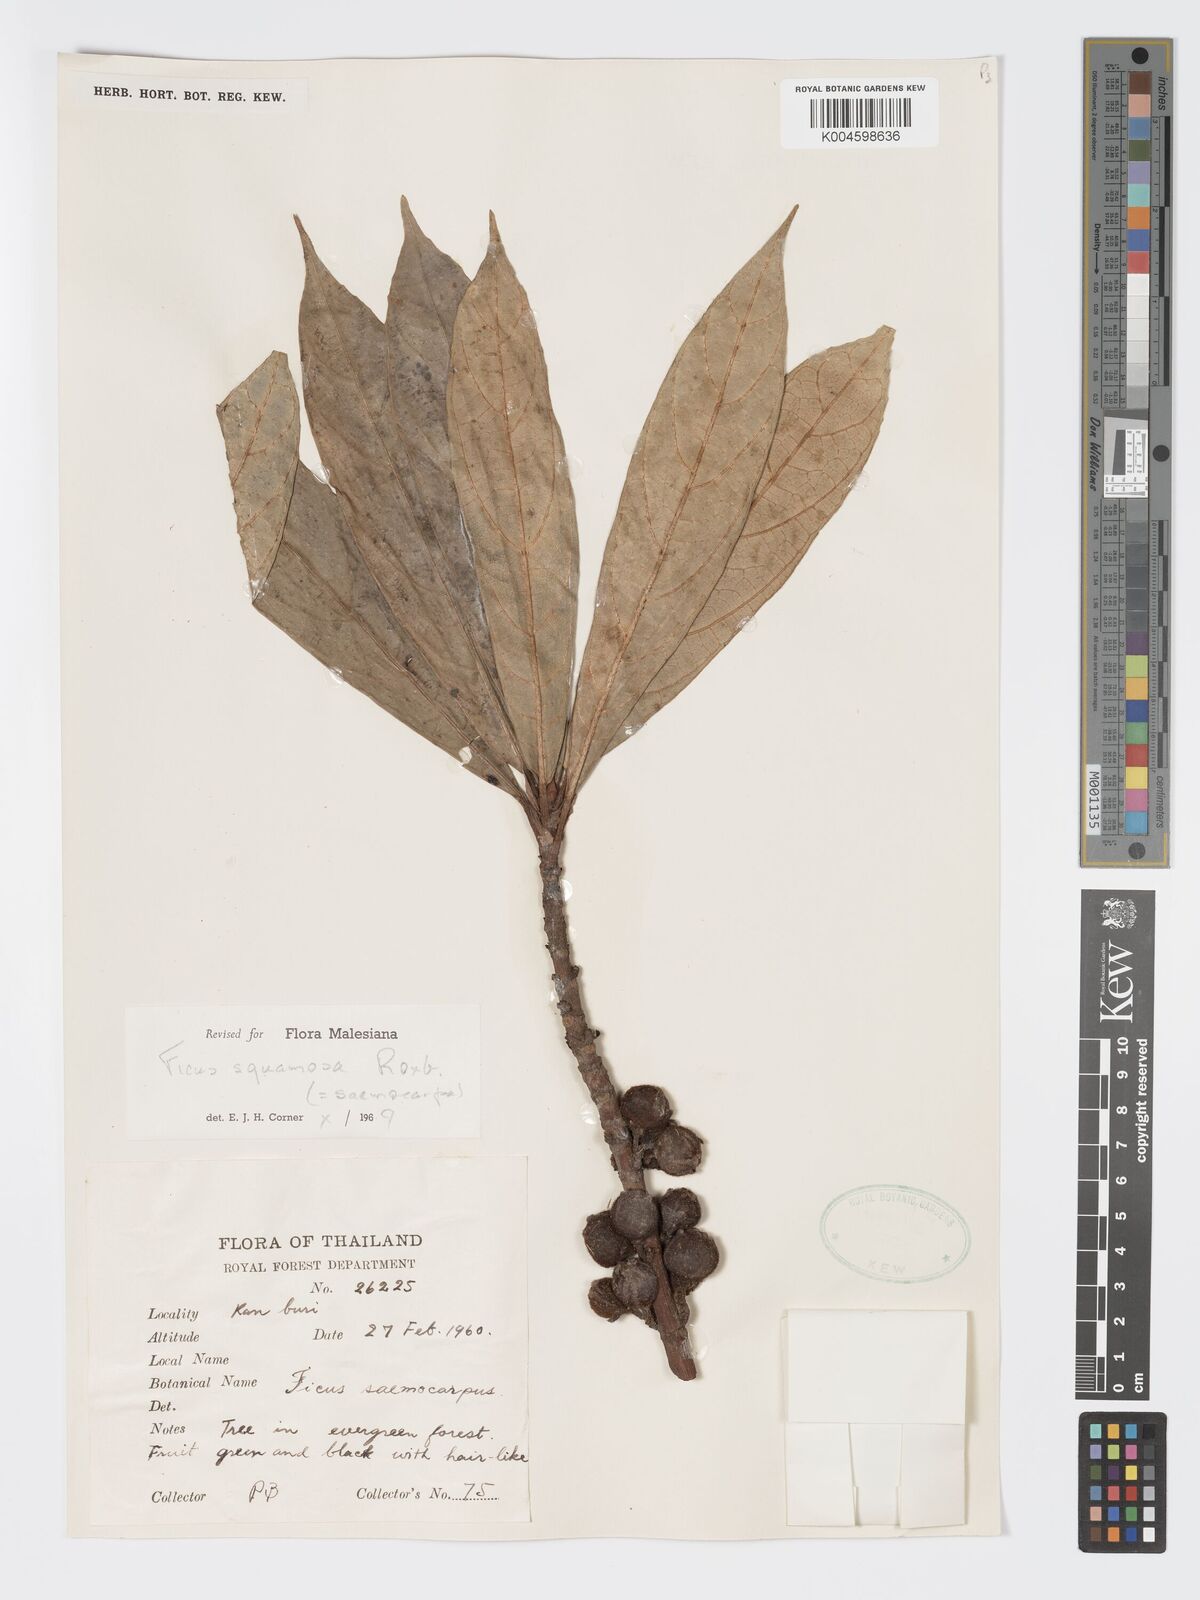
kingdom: Plantae
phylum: Tracheophyta
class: Magnoliopsida
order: Rosales
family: Moraceae
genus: Ficus
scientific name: Ficus squamosa
